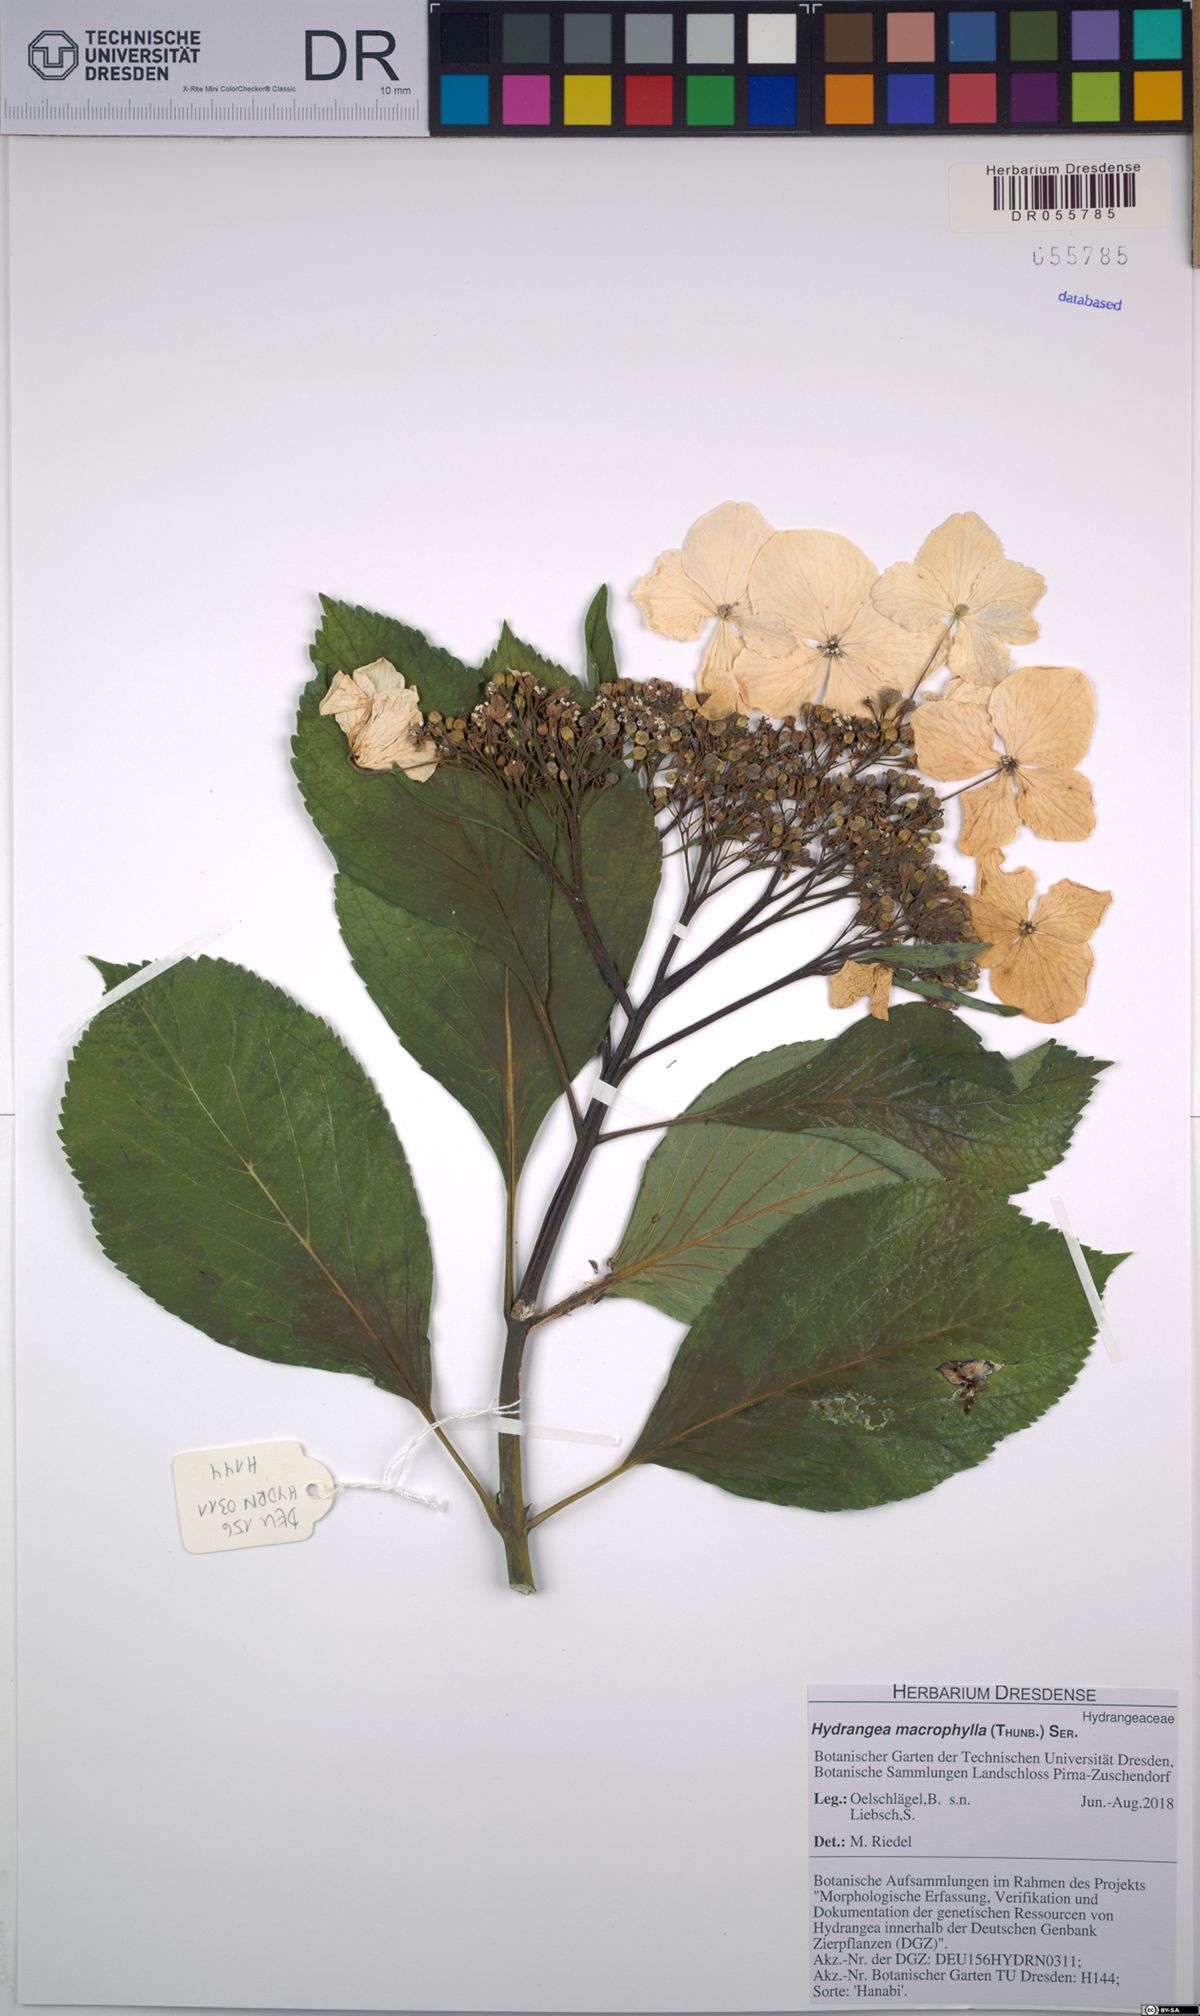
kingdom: Plantae
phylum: Tracheophyta
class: Magnoliopsida
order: Cornales
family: Hydrangeaceae
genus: Hydrangea
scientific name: Hydrangea macrophylla
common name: Hydrangea
